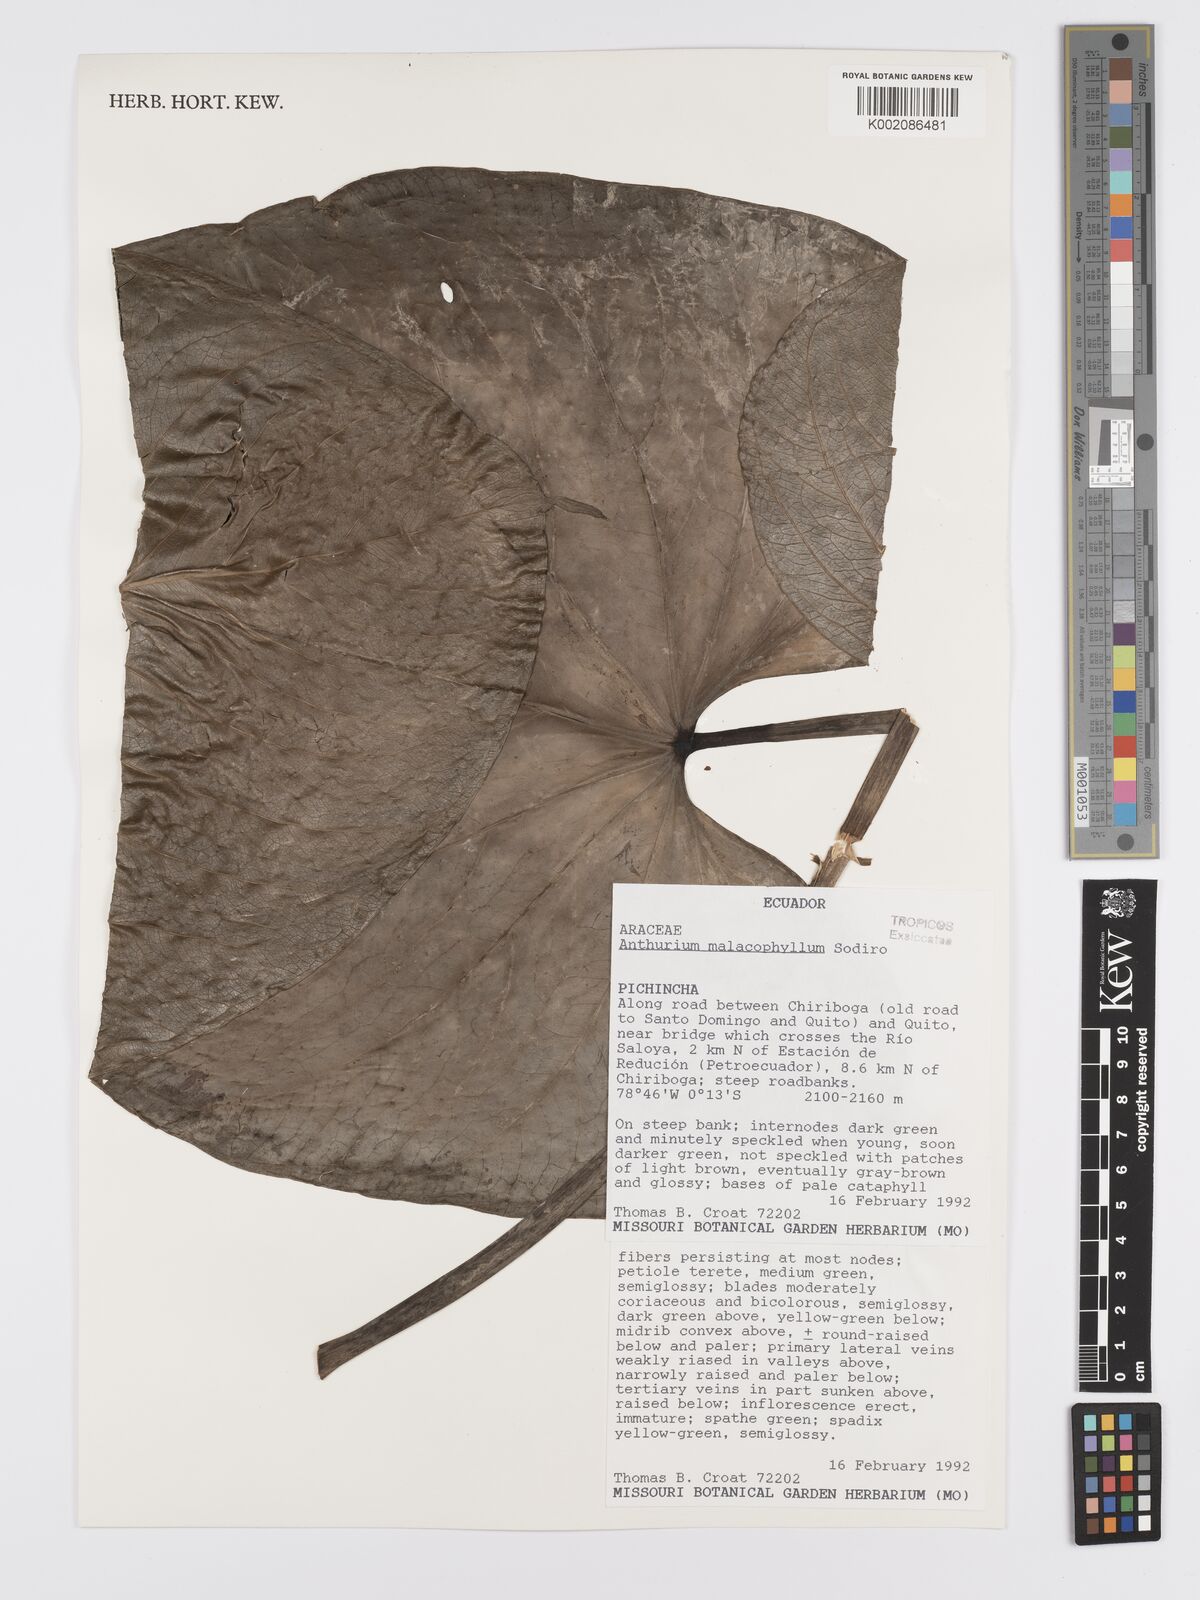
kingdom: Plantae
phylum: Tracheophyta
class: Liliopsida
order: Alismatales
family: Araceae
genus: Anthurium
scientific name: Anthurium nigrescens
